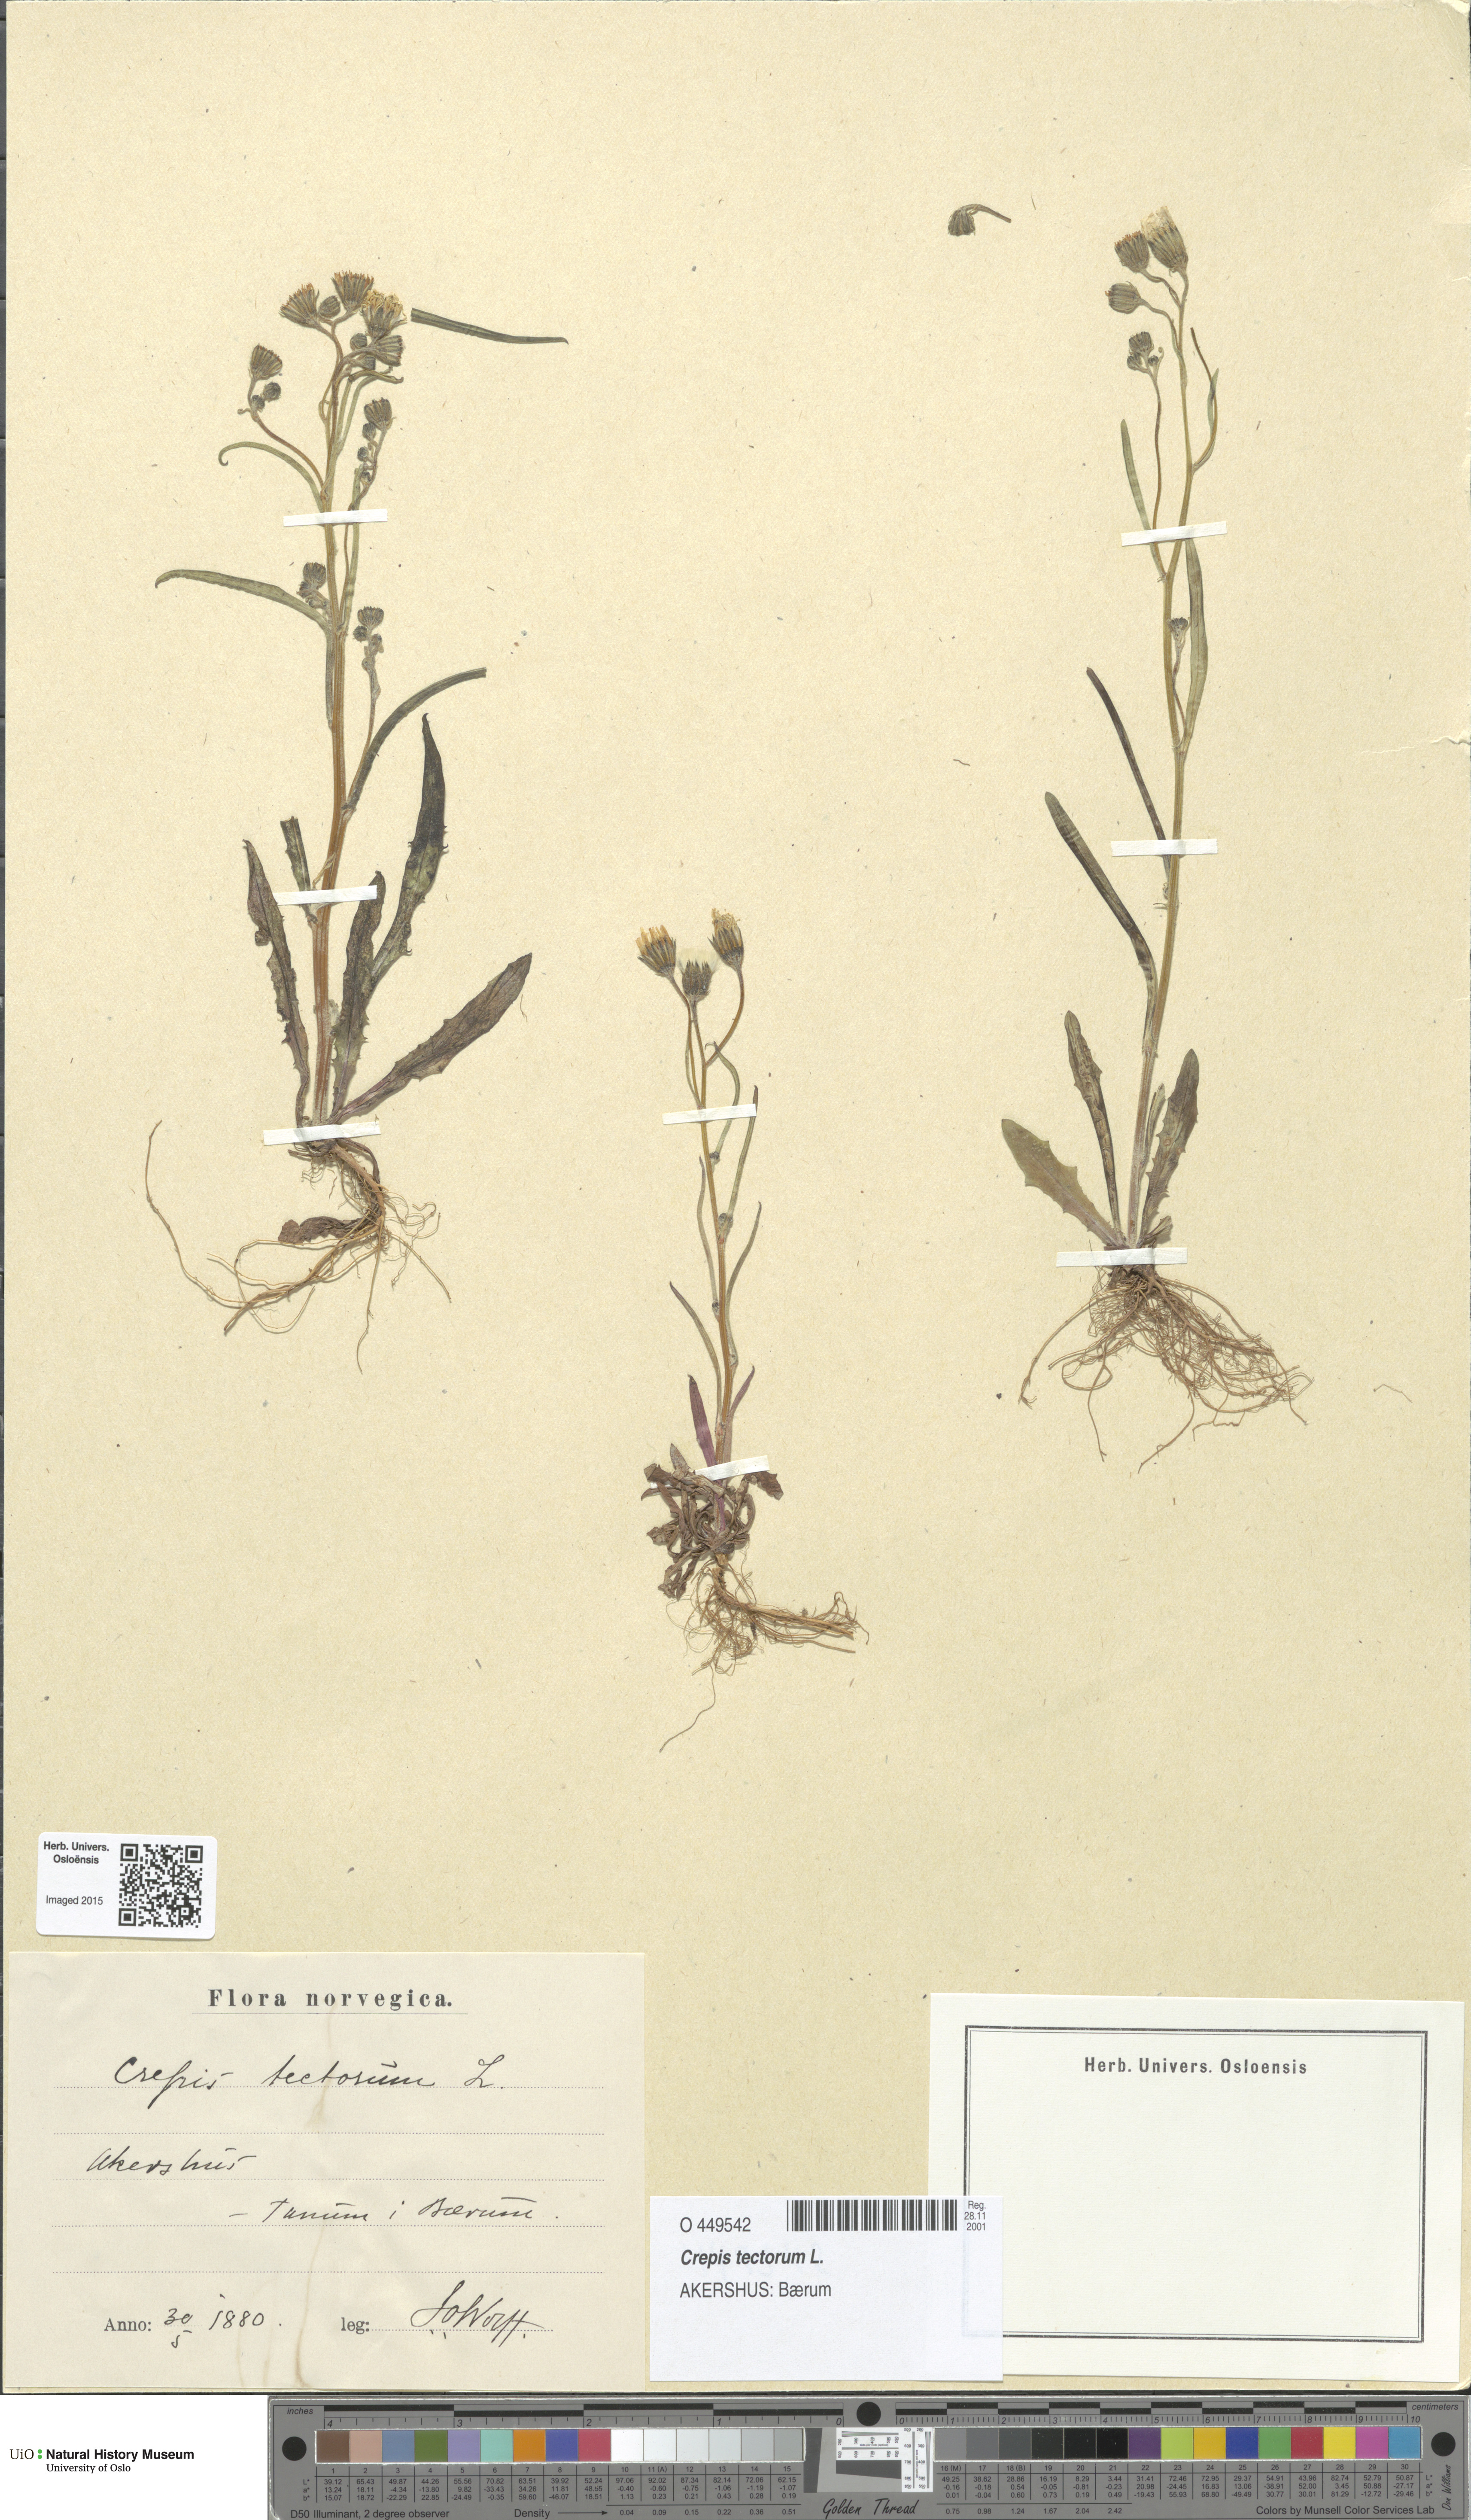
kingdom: Plantae
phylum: Tracheophyta
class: Magnoliopsida
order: Asterales
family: Asteraceae
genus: Crepis
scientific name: Crepis tectorum
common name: Narrow-leaved hawk's-beard
